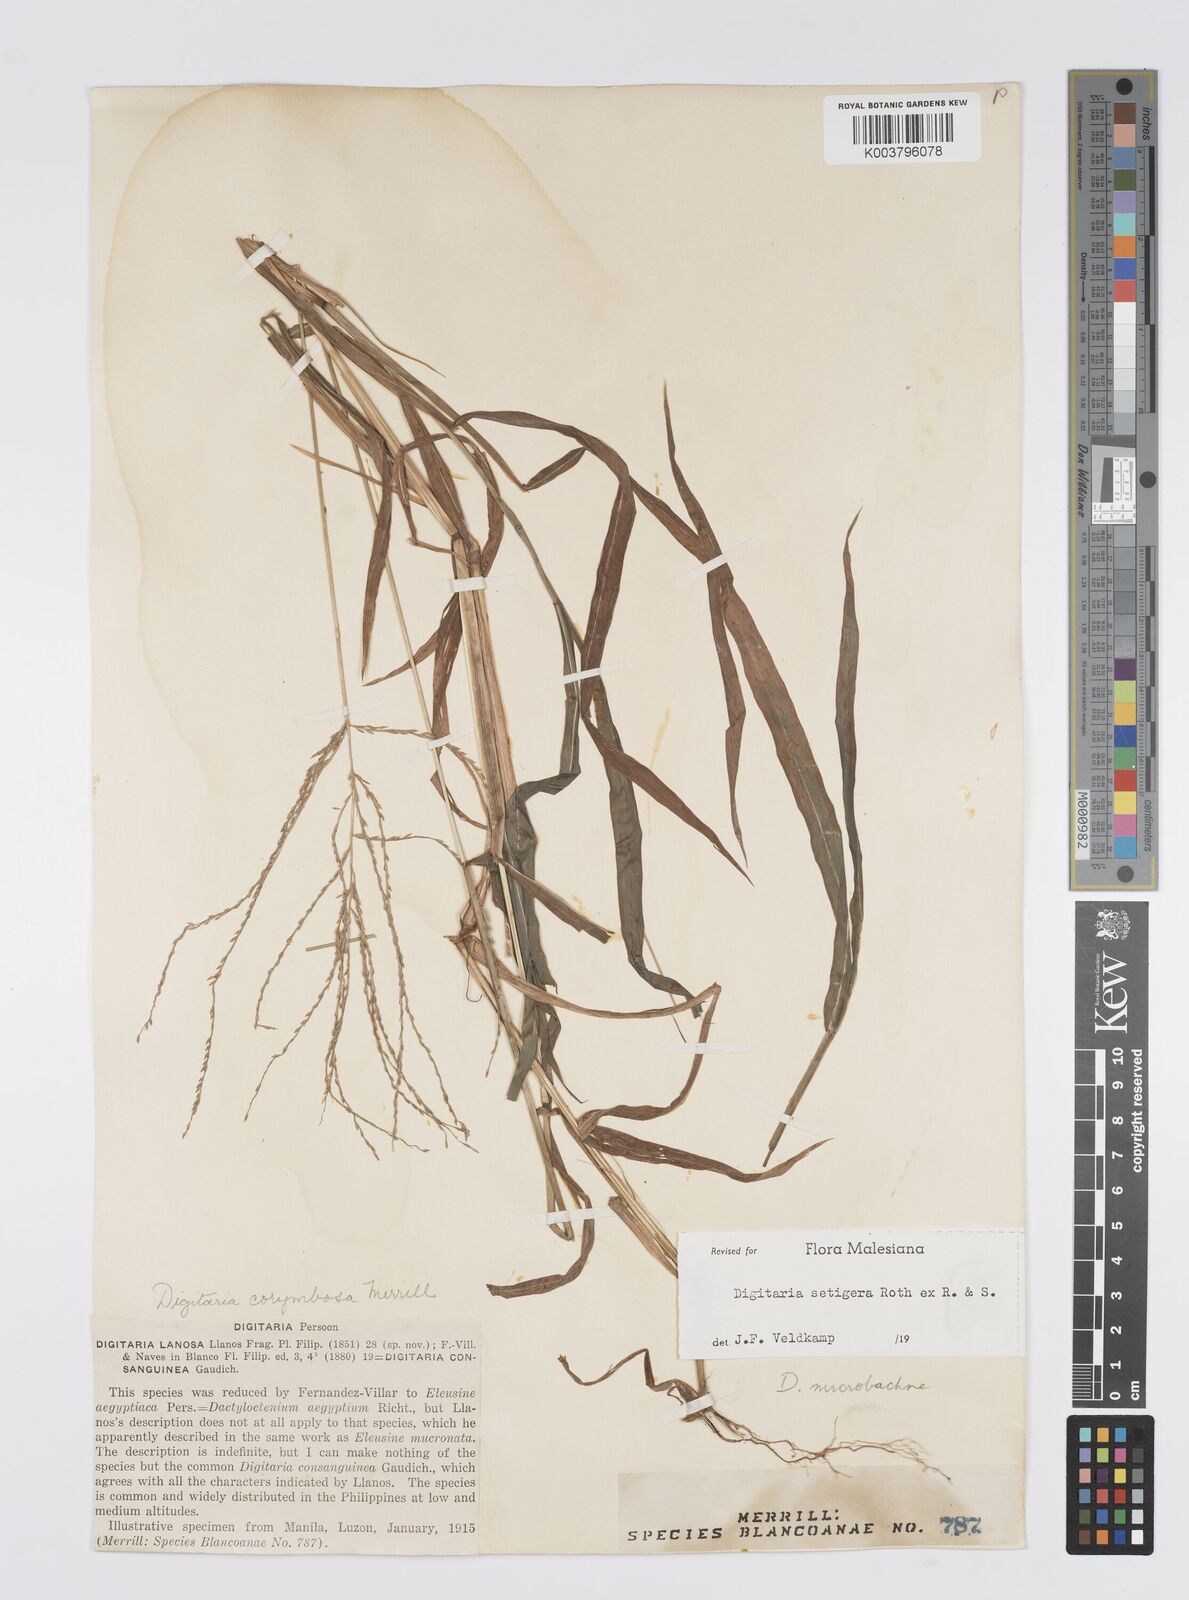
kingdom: Plantae
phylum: Tracheophyta
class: Liliopsida
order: Poales
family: Poaceae
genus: Digitaria
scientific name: Digitaria setigera
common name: East indian crabgrass
